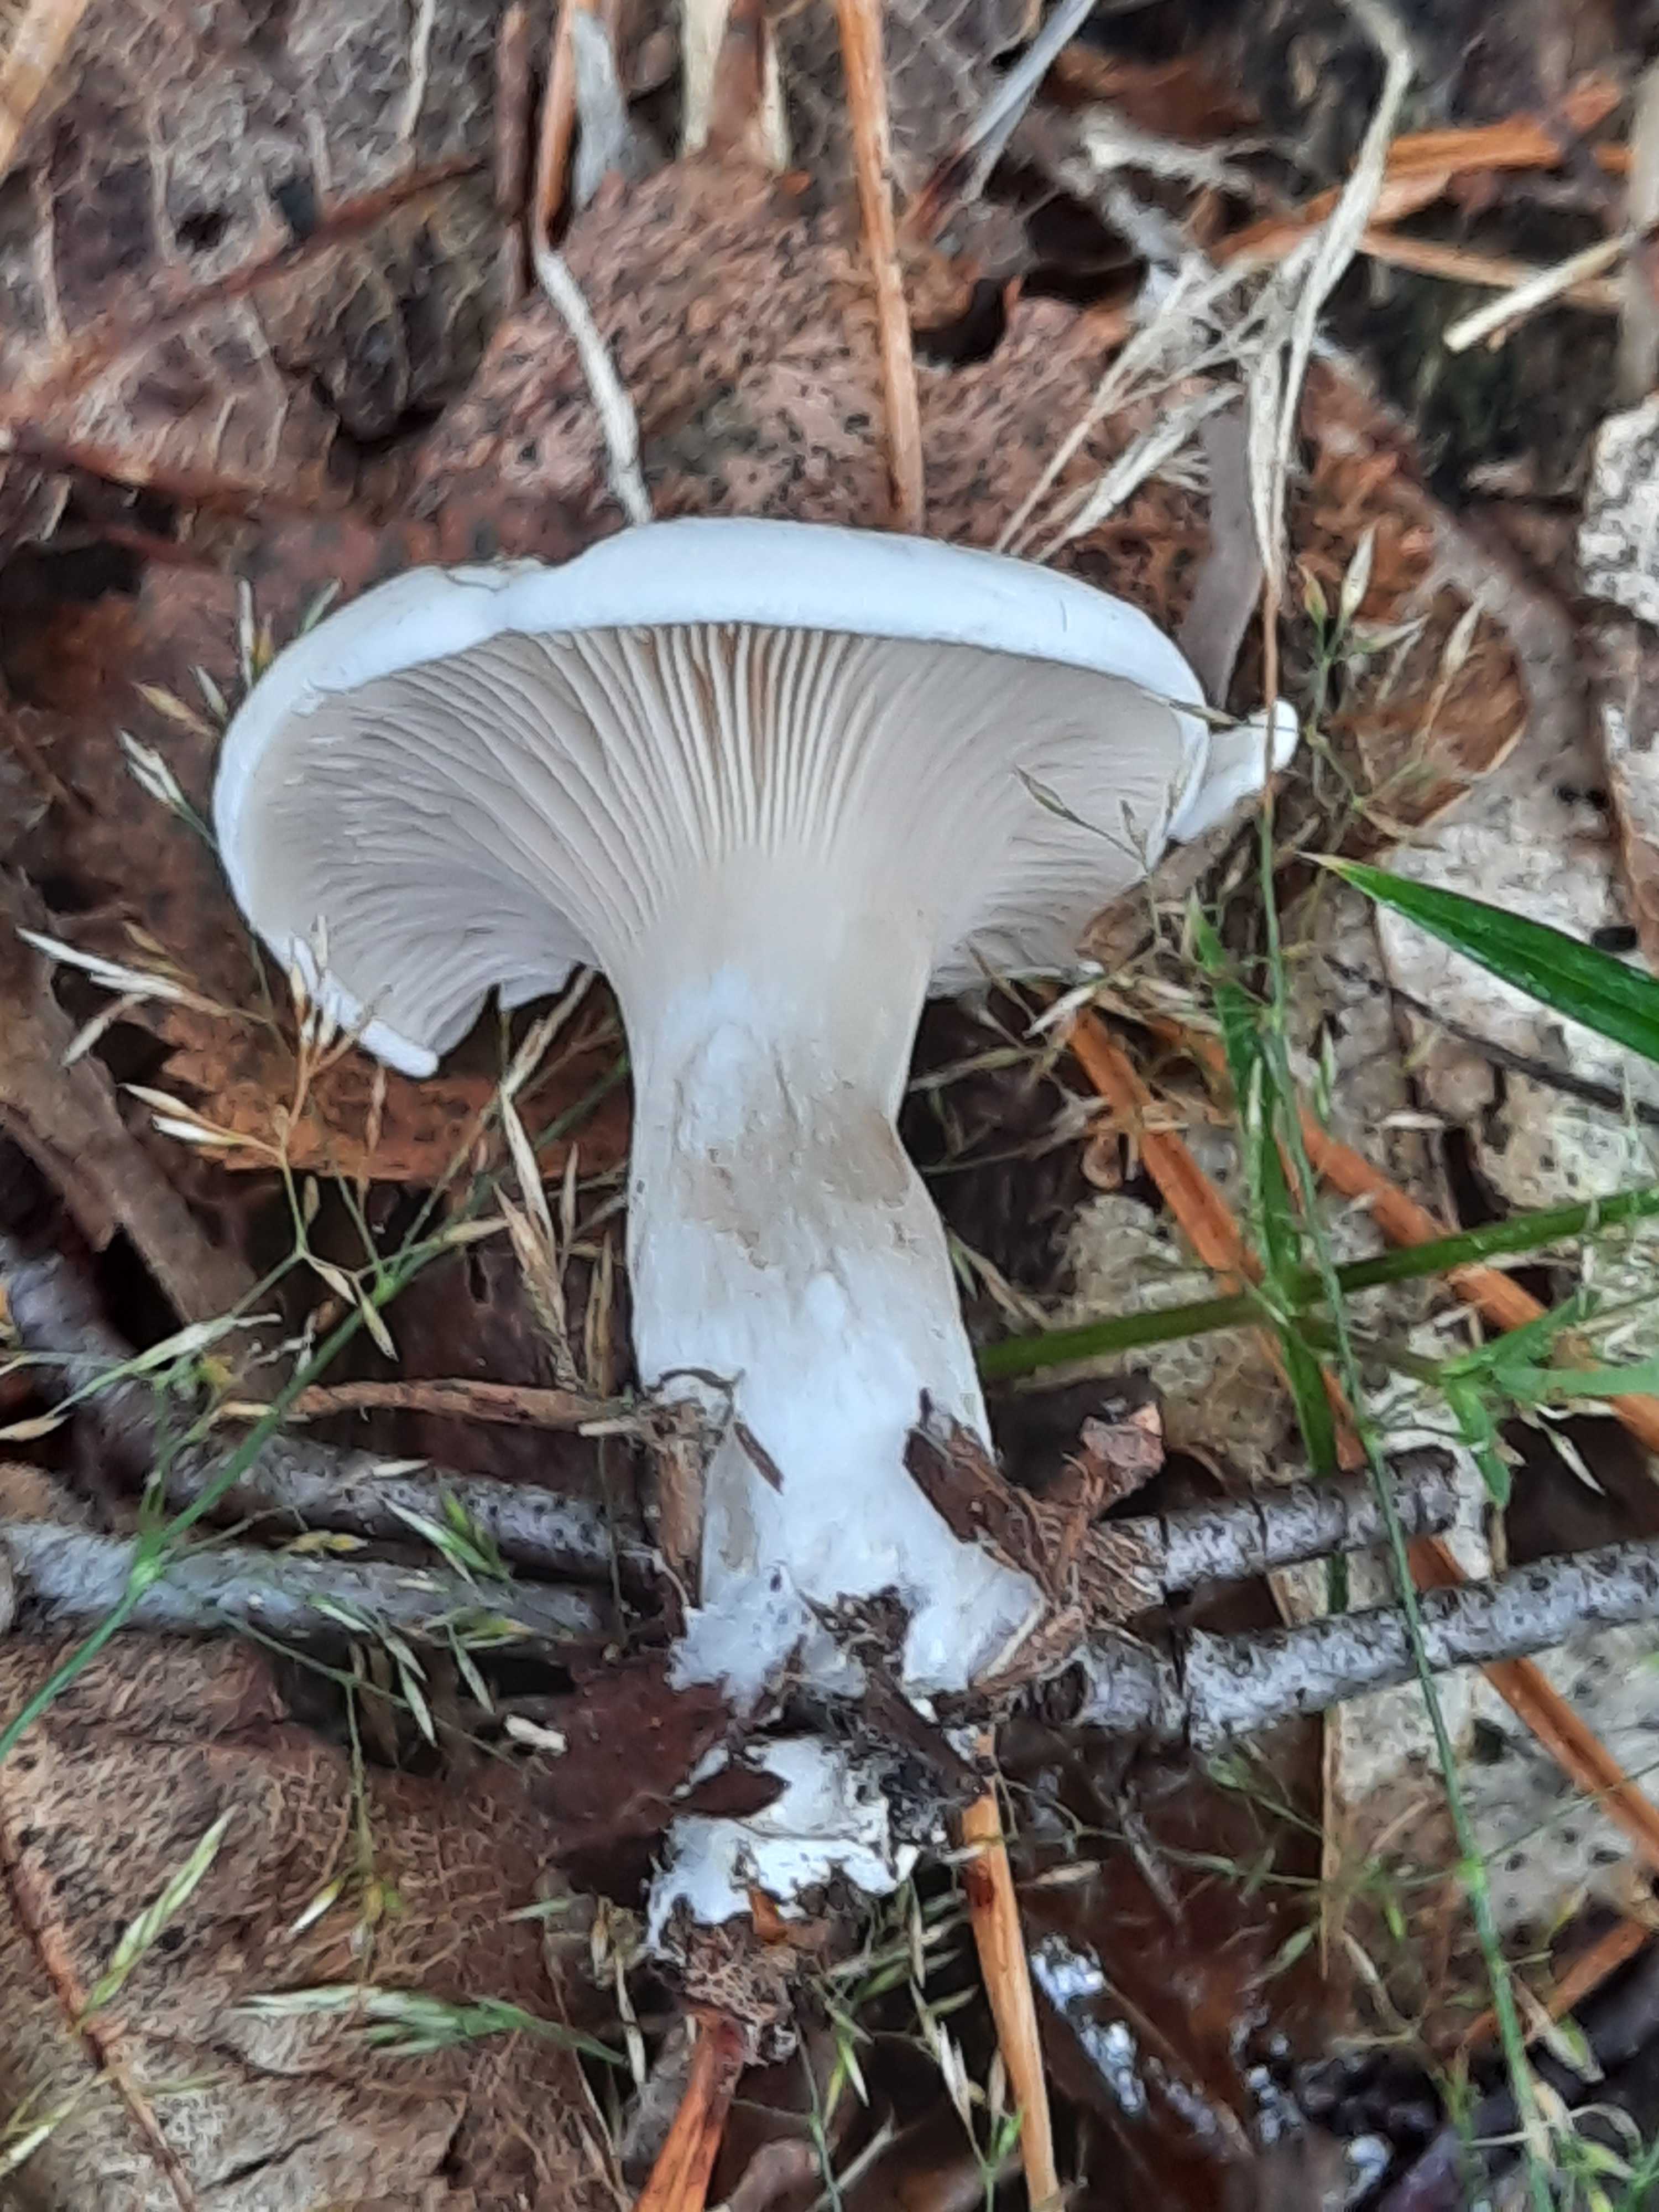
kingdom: Fungi
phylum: Basidiomycota
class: Agaricomycetes
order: Agaricales
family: Entolomataceae
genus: Clitopilus
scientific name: Clitopilus prunulus
